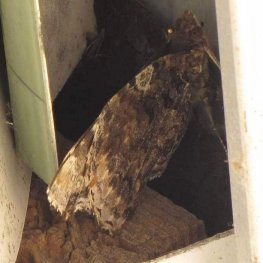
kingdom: Animalia
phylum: Arthropoda
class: Insecta
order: Lepidoptera
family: Nymphalidae
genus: Vanessa
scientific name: Vanessa atalanta
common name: Red Admiral
